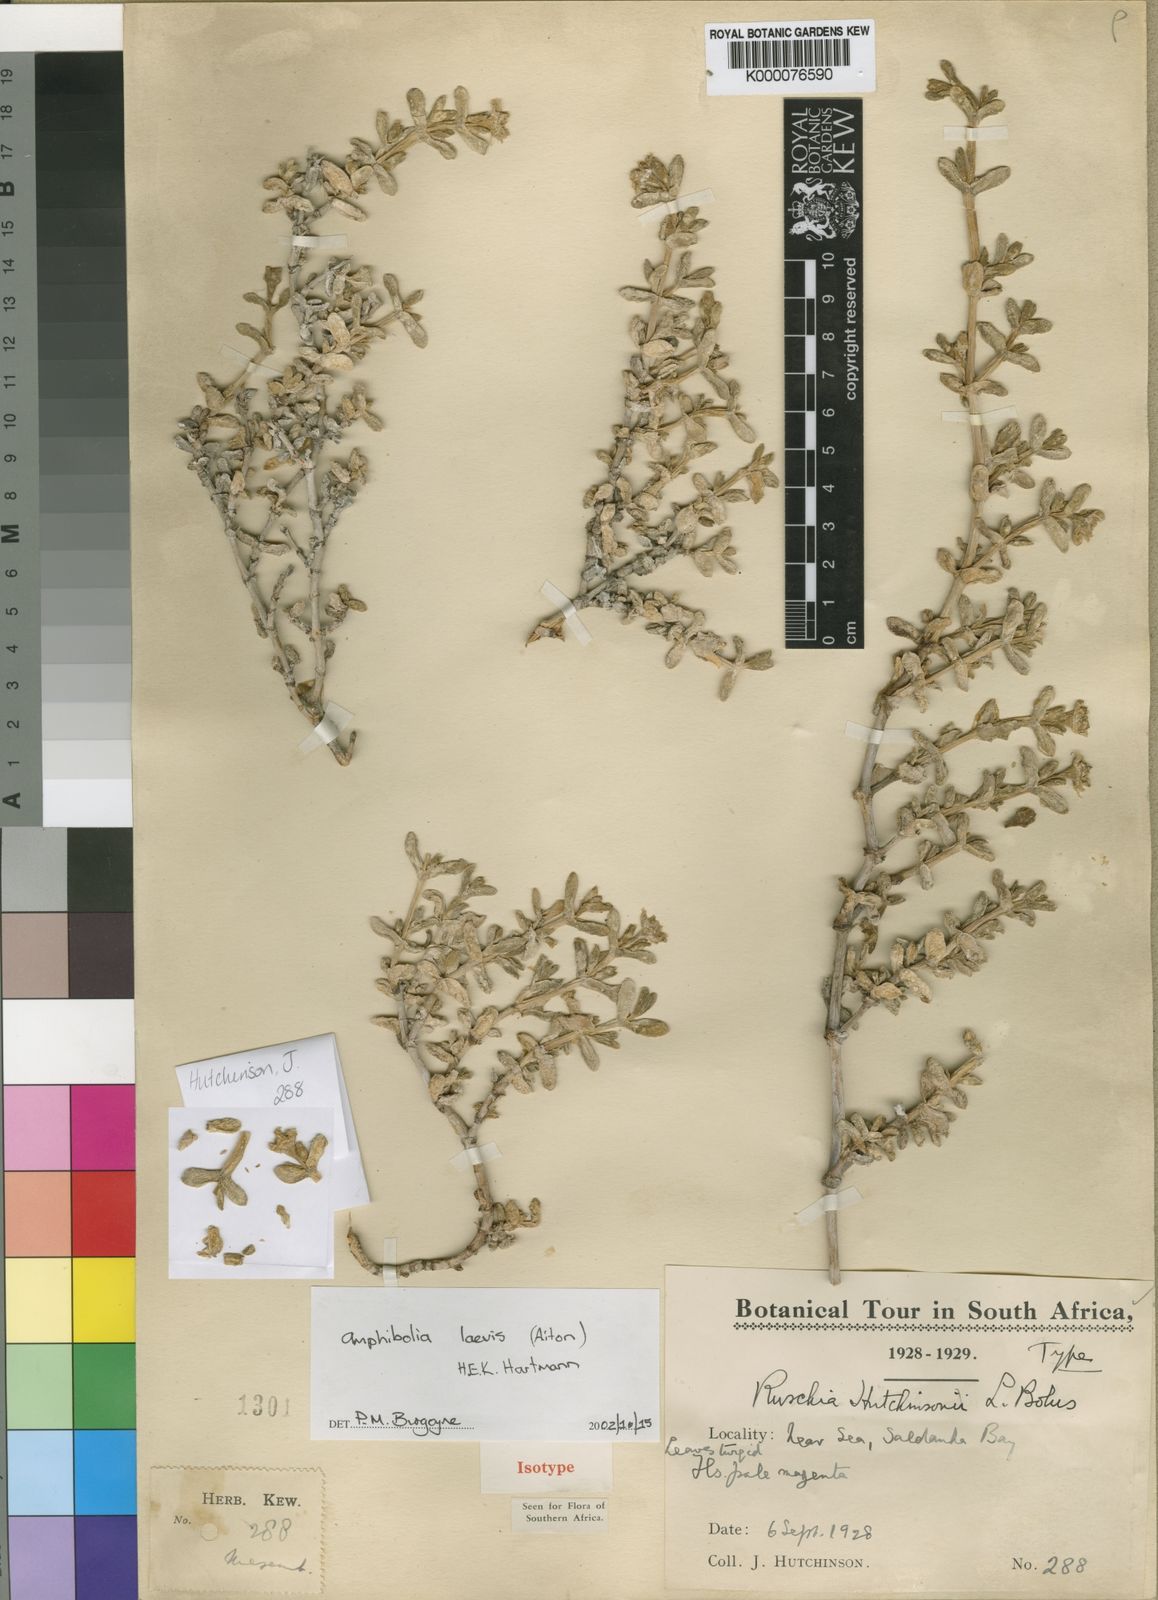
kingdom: Plantae
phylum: Tracheophyta
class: Magnoliopsida
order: Caryophyllales
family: Aizoaceae
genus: Amphibolia
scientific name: Amphibolia laevis
